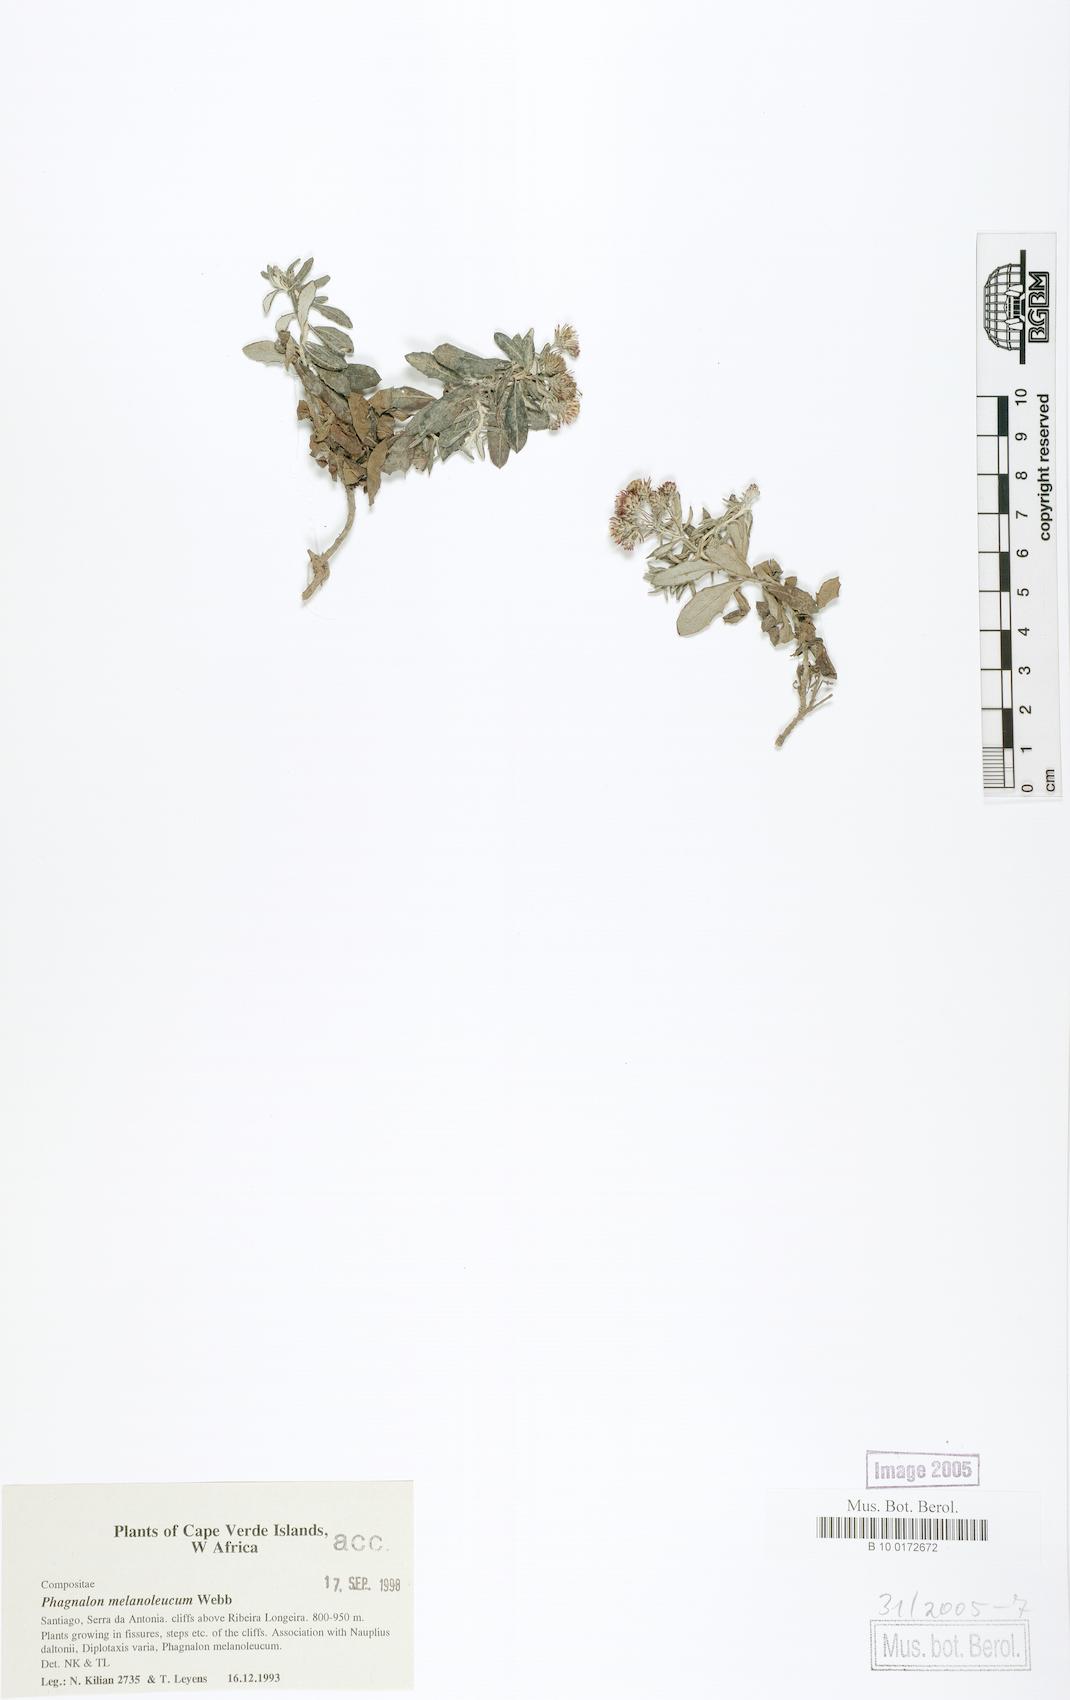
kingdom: Plantae
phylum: Tracheophyta
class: Magnoliopsida
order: Asterales
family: Asteraceae
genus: Phagnalon
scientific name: Phagnalon melanoleucum
